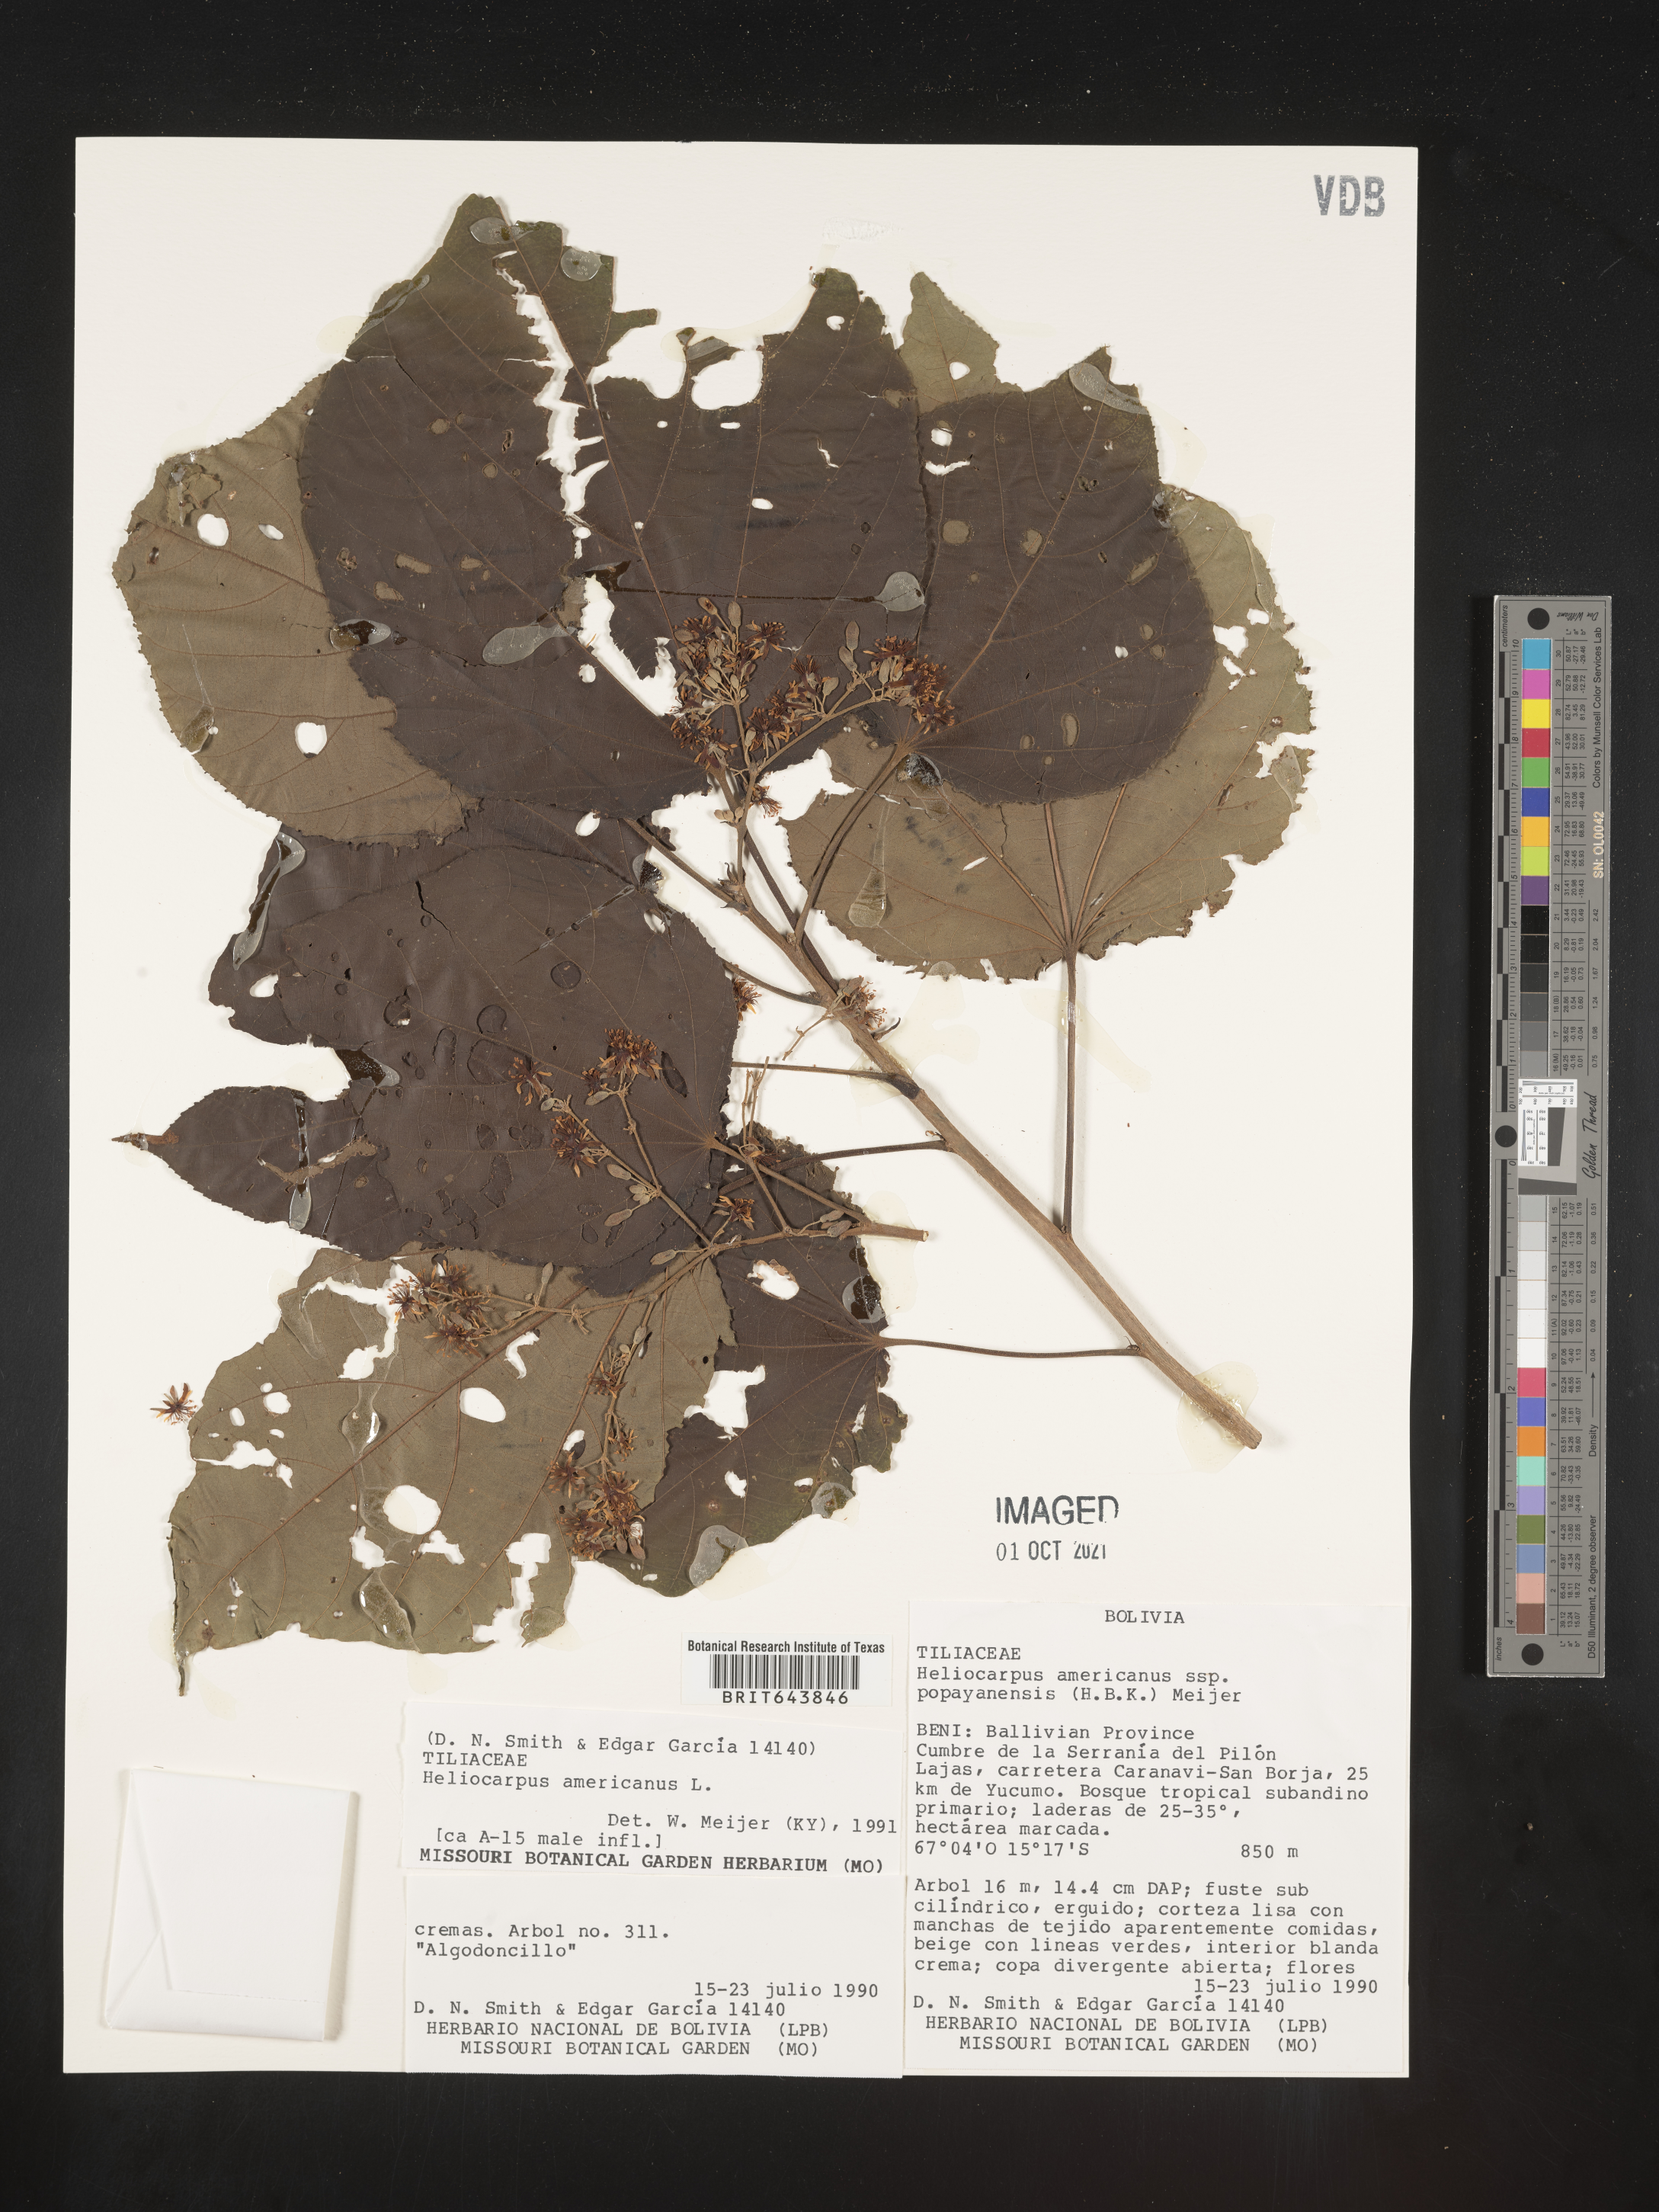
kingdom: Plantae
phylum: Tracheophyta
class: Magnoliopsida
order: Malvales
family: Malvaceae
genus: Heliocarpus
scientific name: Heliocarpus
